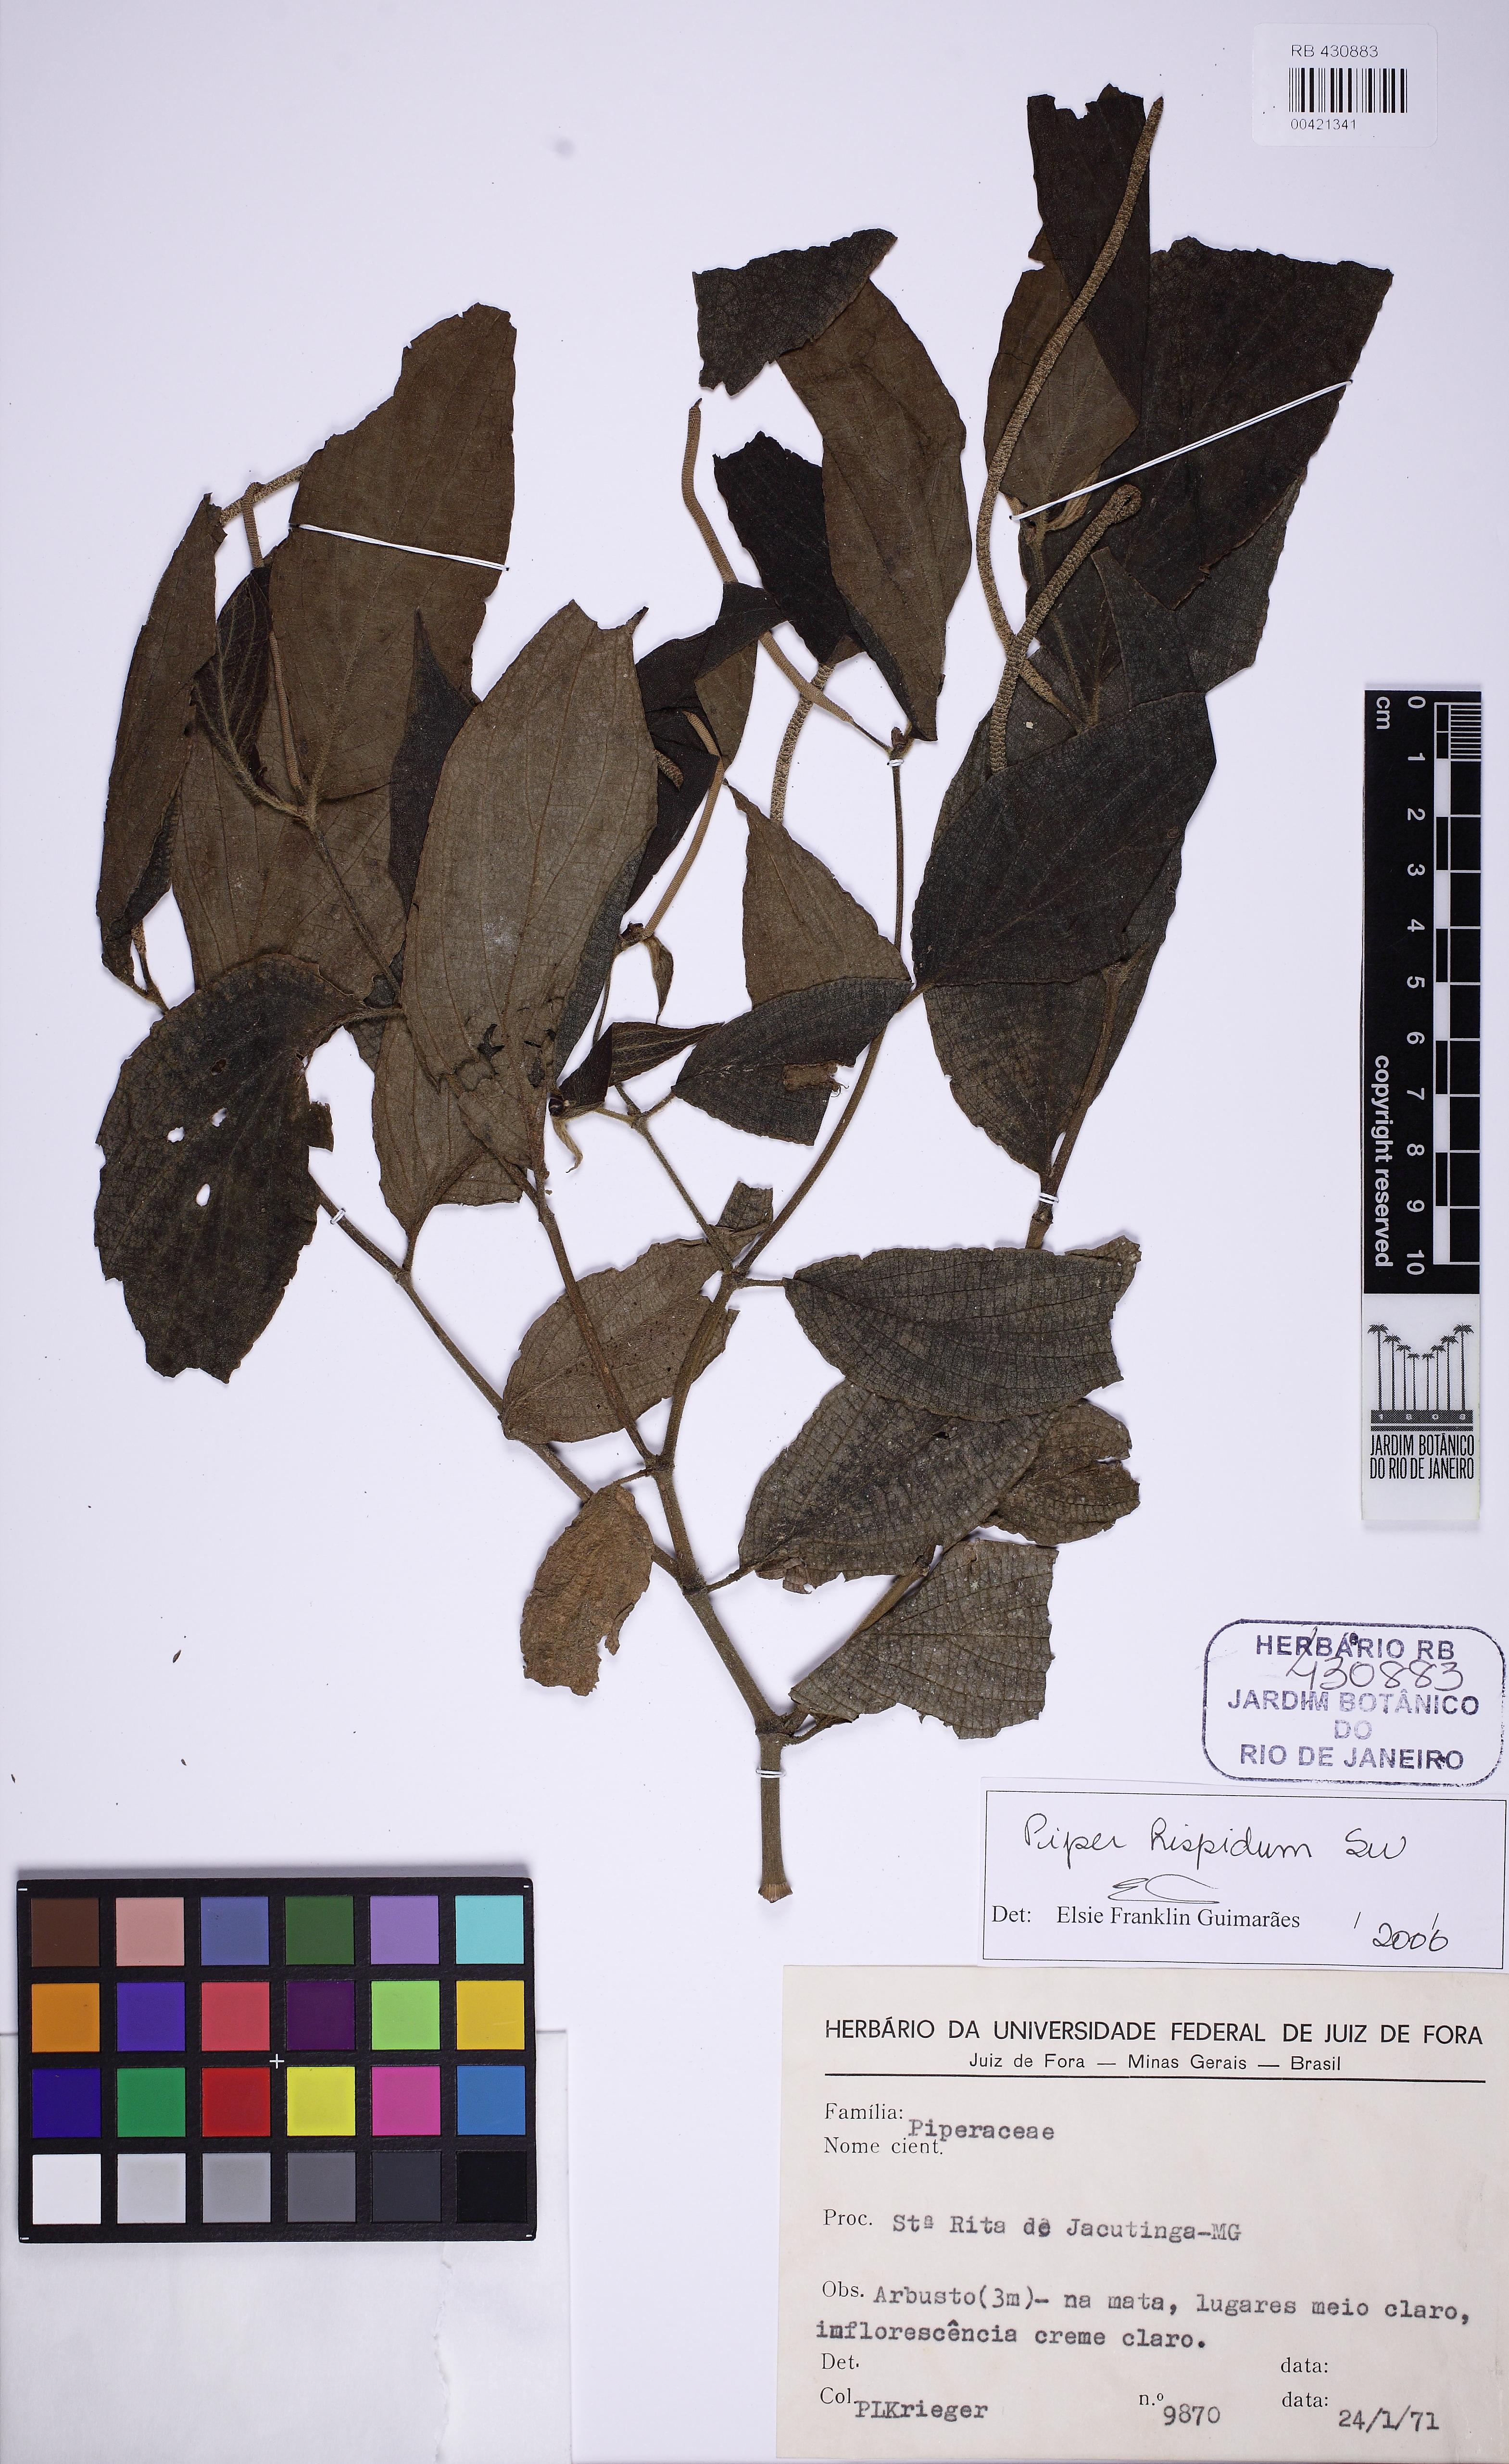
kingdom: Plantae
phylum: Tracheophyta
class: Magnoliopsida
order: Piperales
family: Piperaceae
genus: Piper
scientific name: Piper hispidum
